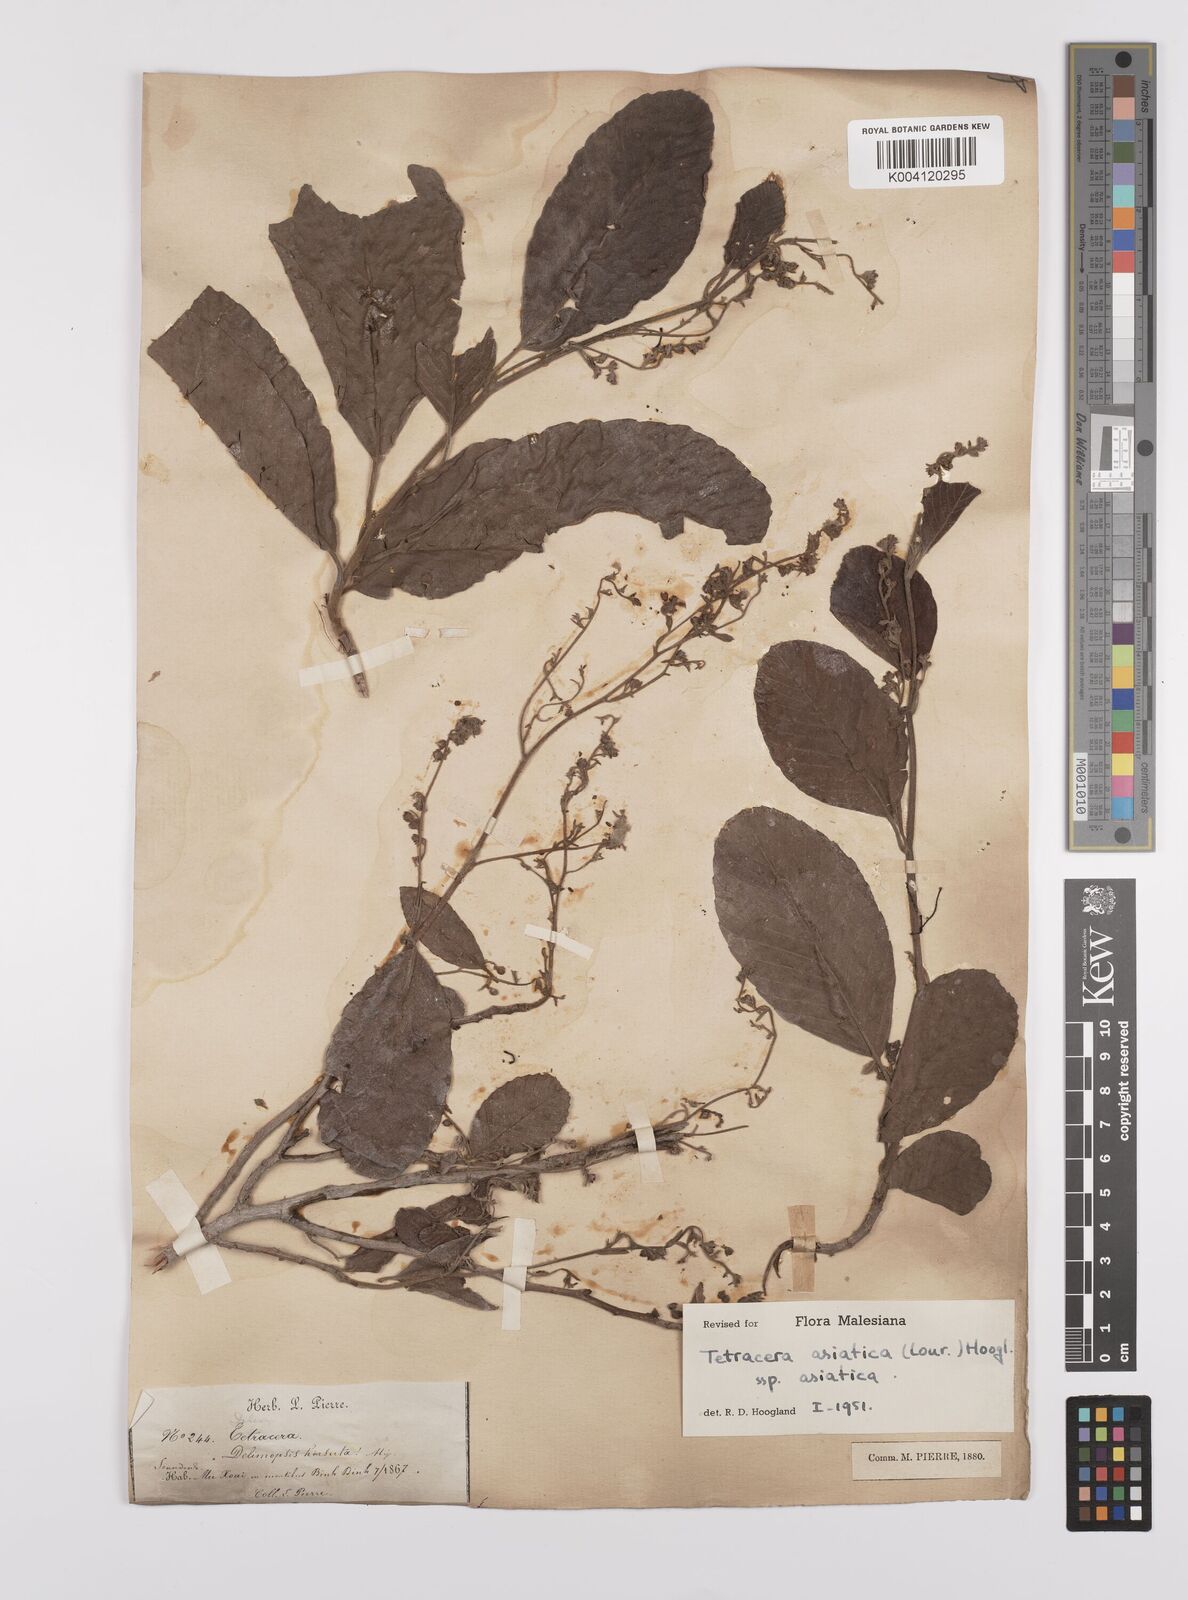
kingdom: Plantae
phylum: Tracheophyta
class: Magnoliopsida
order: Dilleniales
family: Dilleniaceae
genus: Tetracera
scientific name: Tetracera sarmentosa
